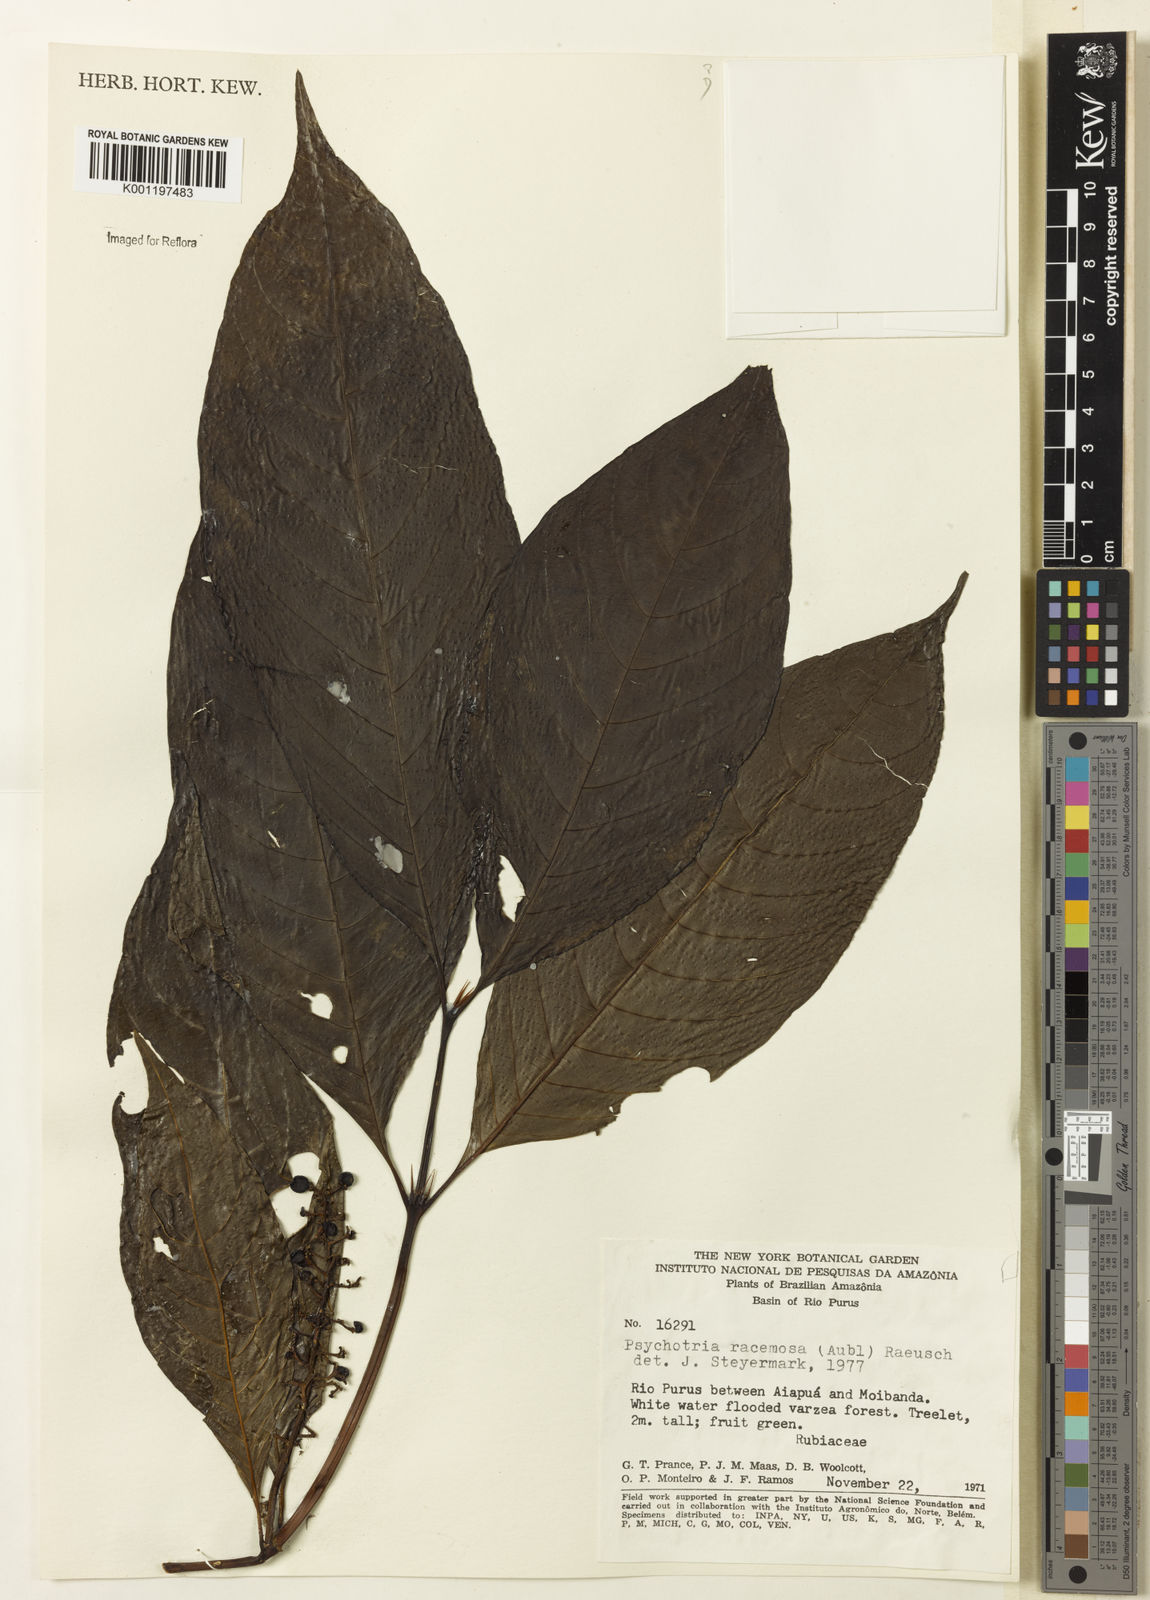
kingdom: Plantae
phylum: Tracheophyta
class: Magnoliopsida
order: Gentianales
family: Rubiaceae
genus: Palicourea
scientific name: Palicourea racemosa
